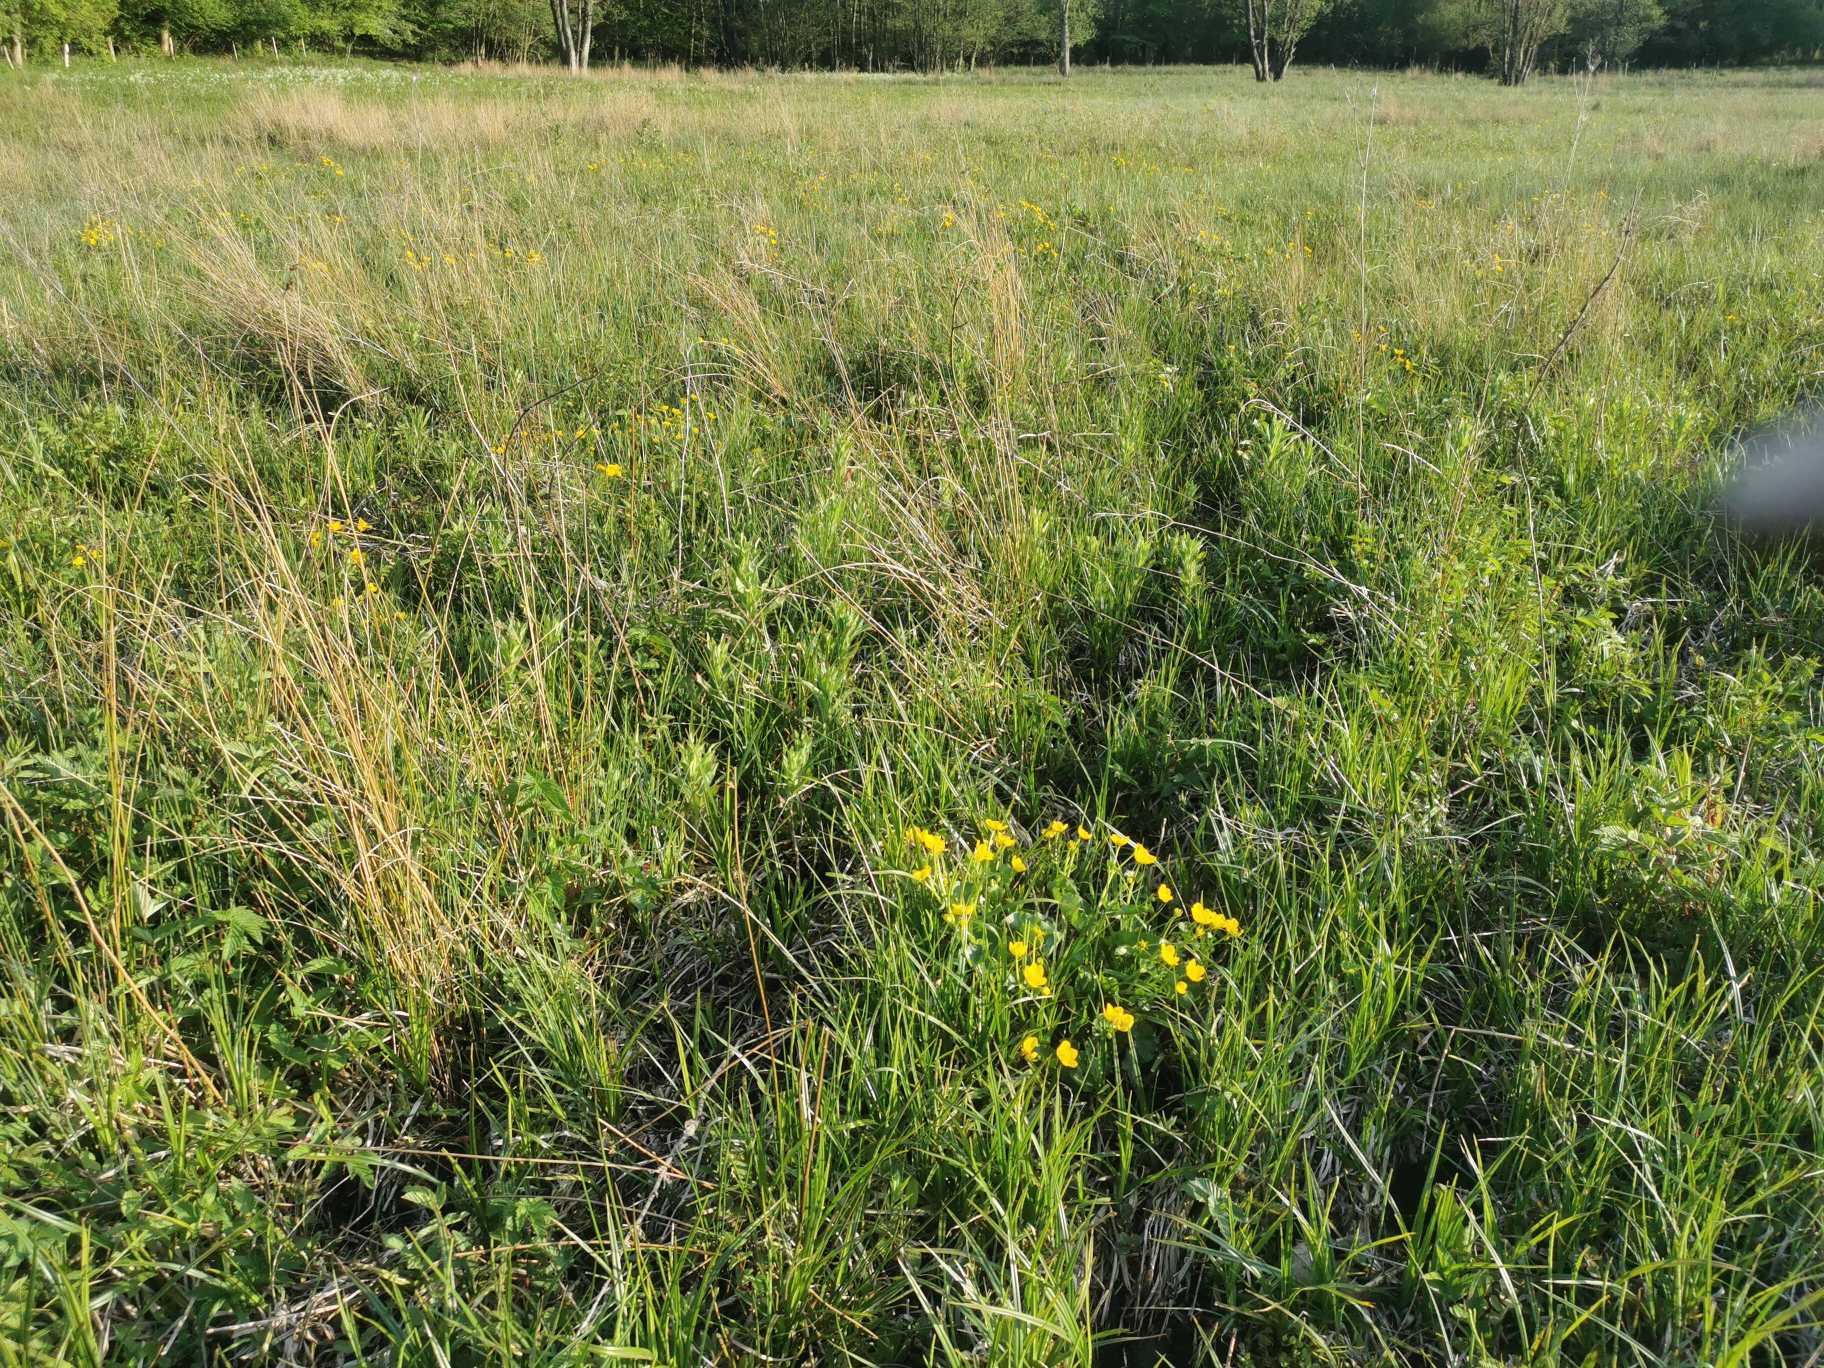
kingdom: Plantae
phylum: Tracheophyta
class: Magnoliopsida
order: Ranunculales
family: Ranunculaceae
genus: Caltha
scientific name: Caltha palustris
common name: Eng-kabbeleje
